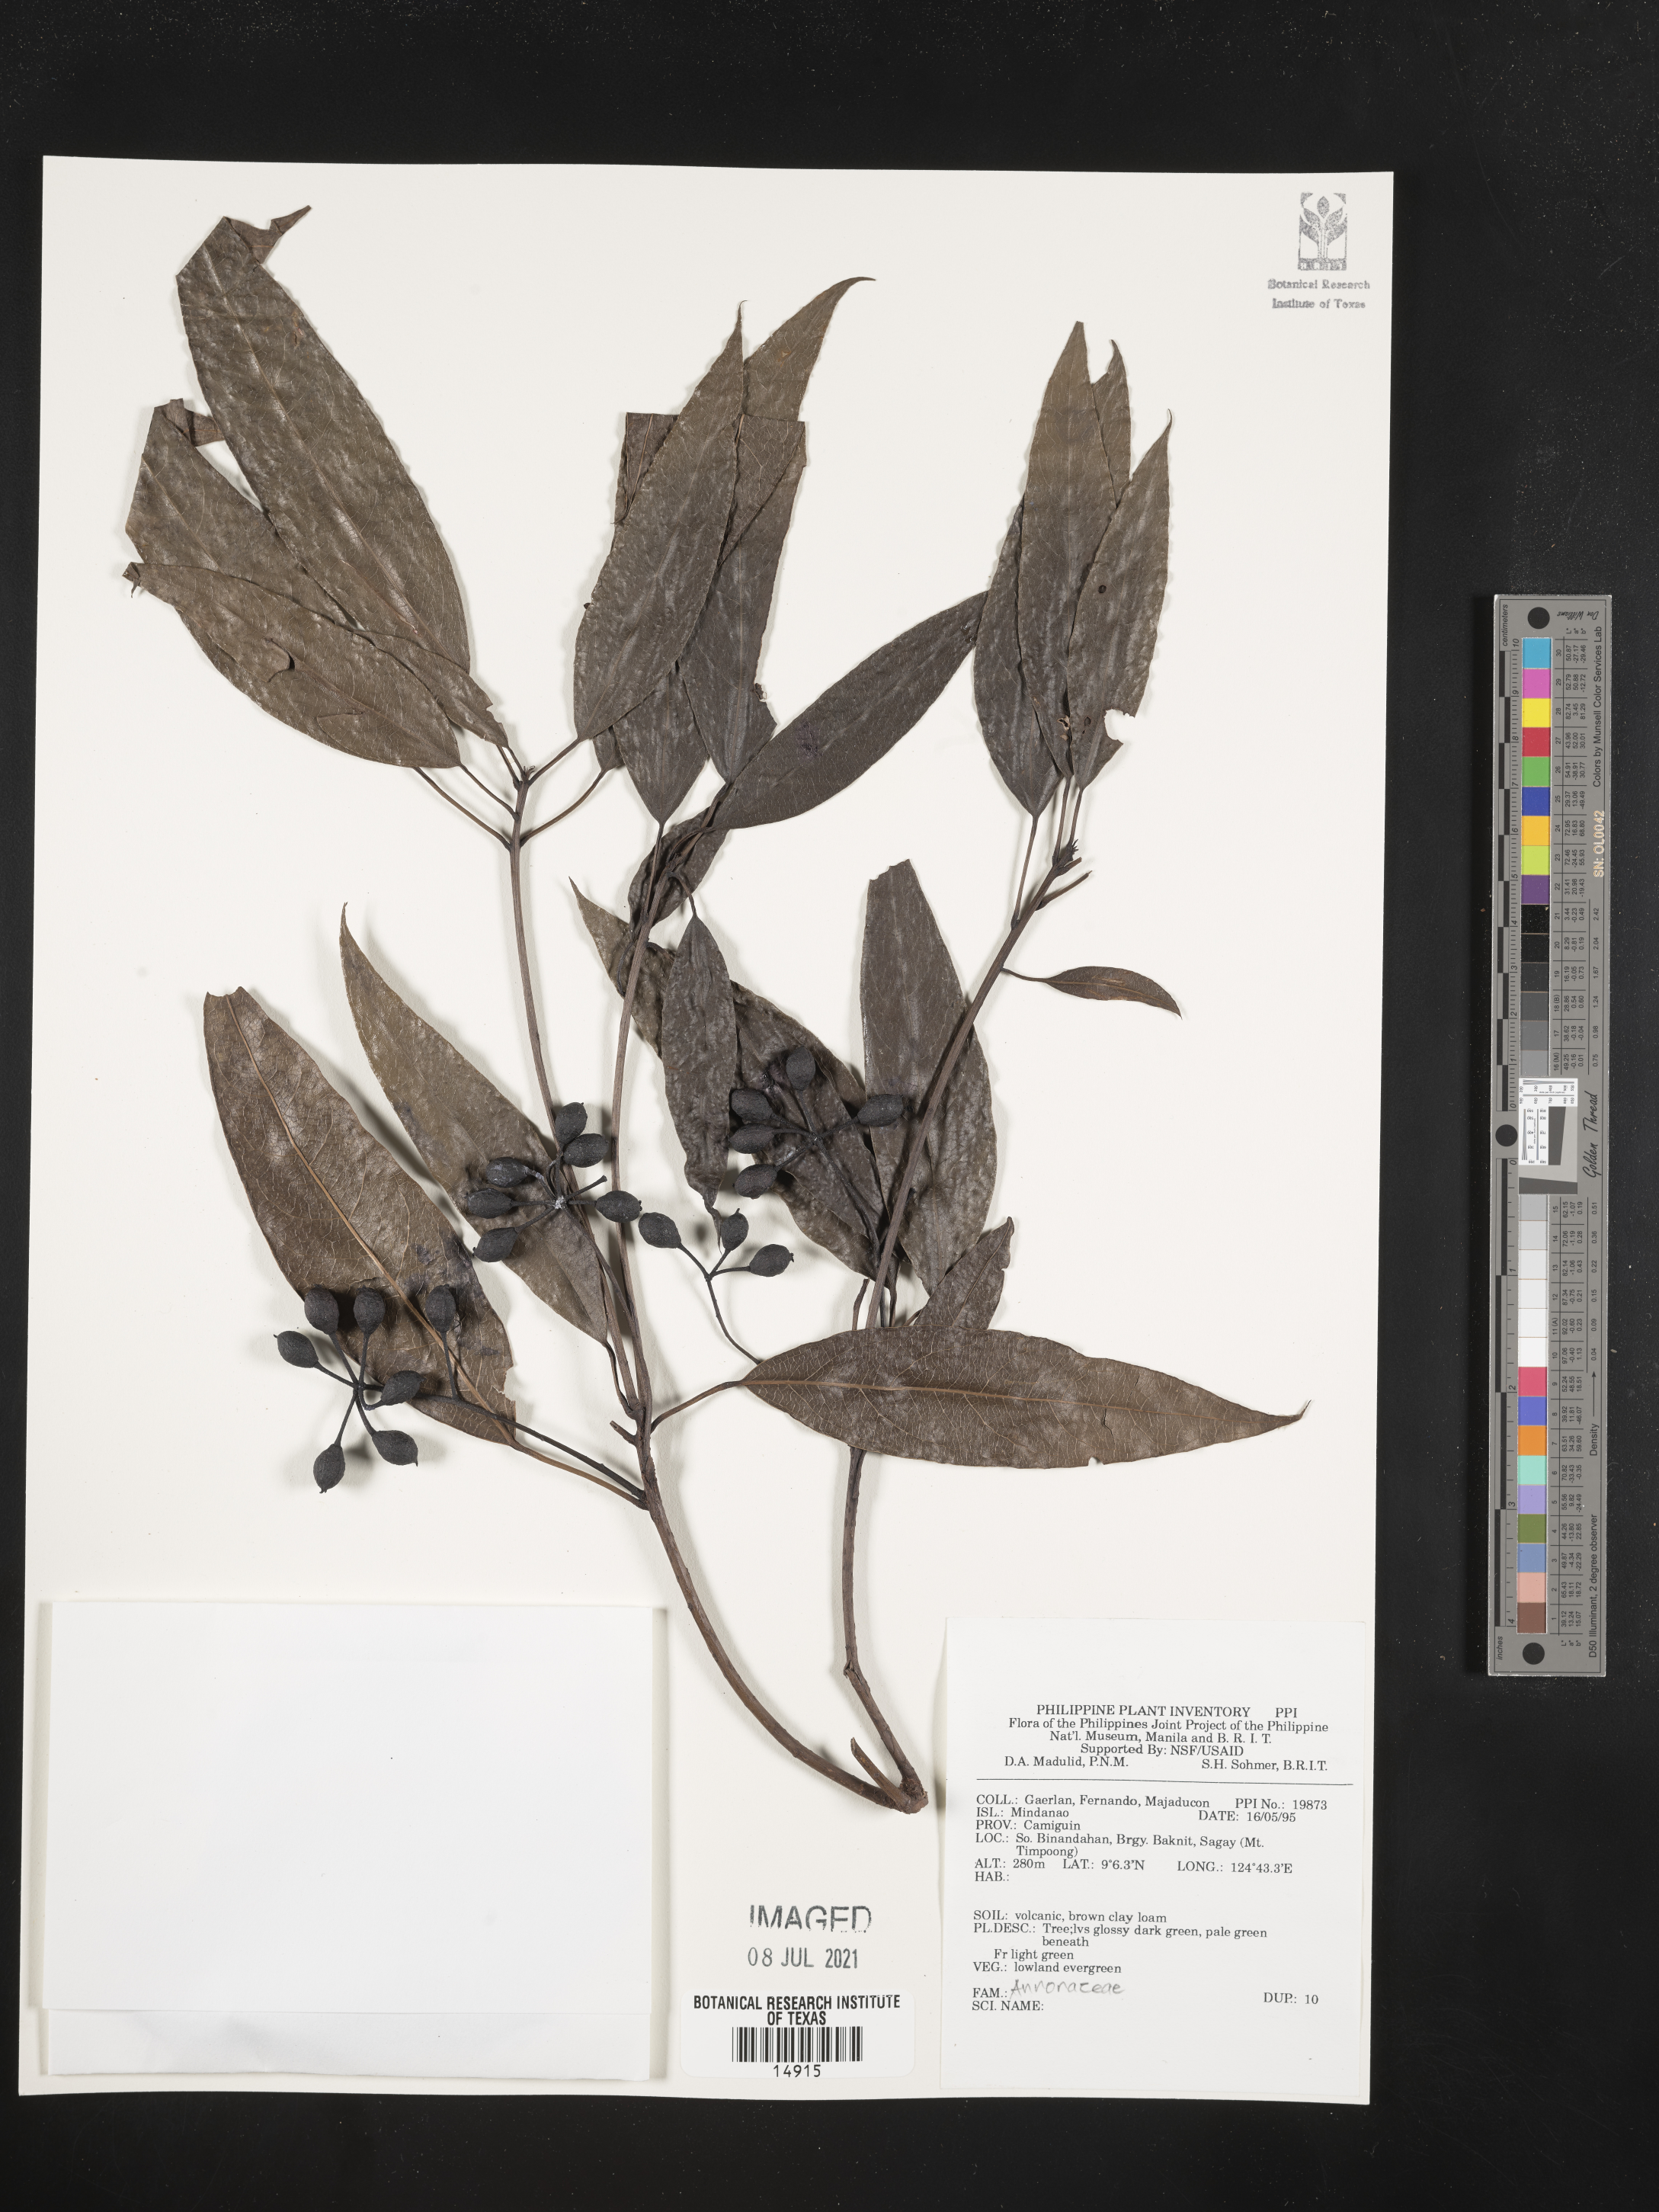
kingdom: Plantae
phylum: Tracheophyta
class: Magnoliopsida
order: Magnoliales
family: Annonaceae
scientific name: Annonaceae
